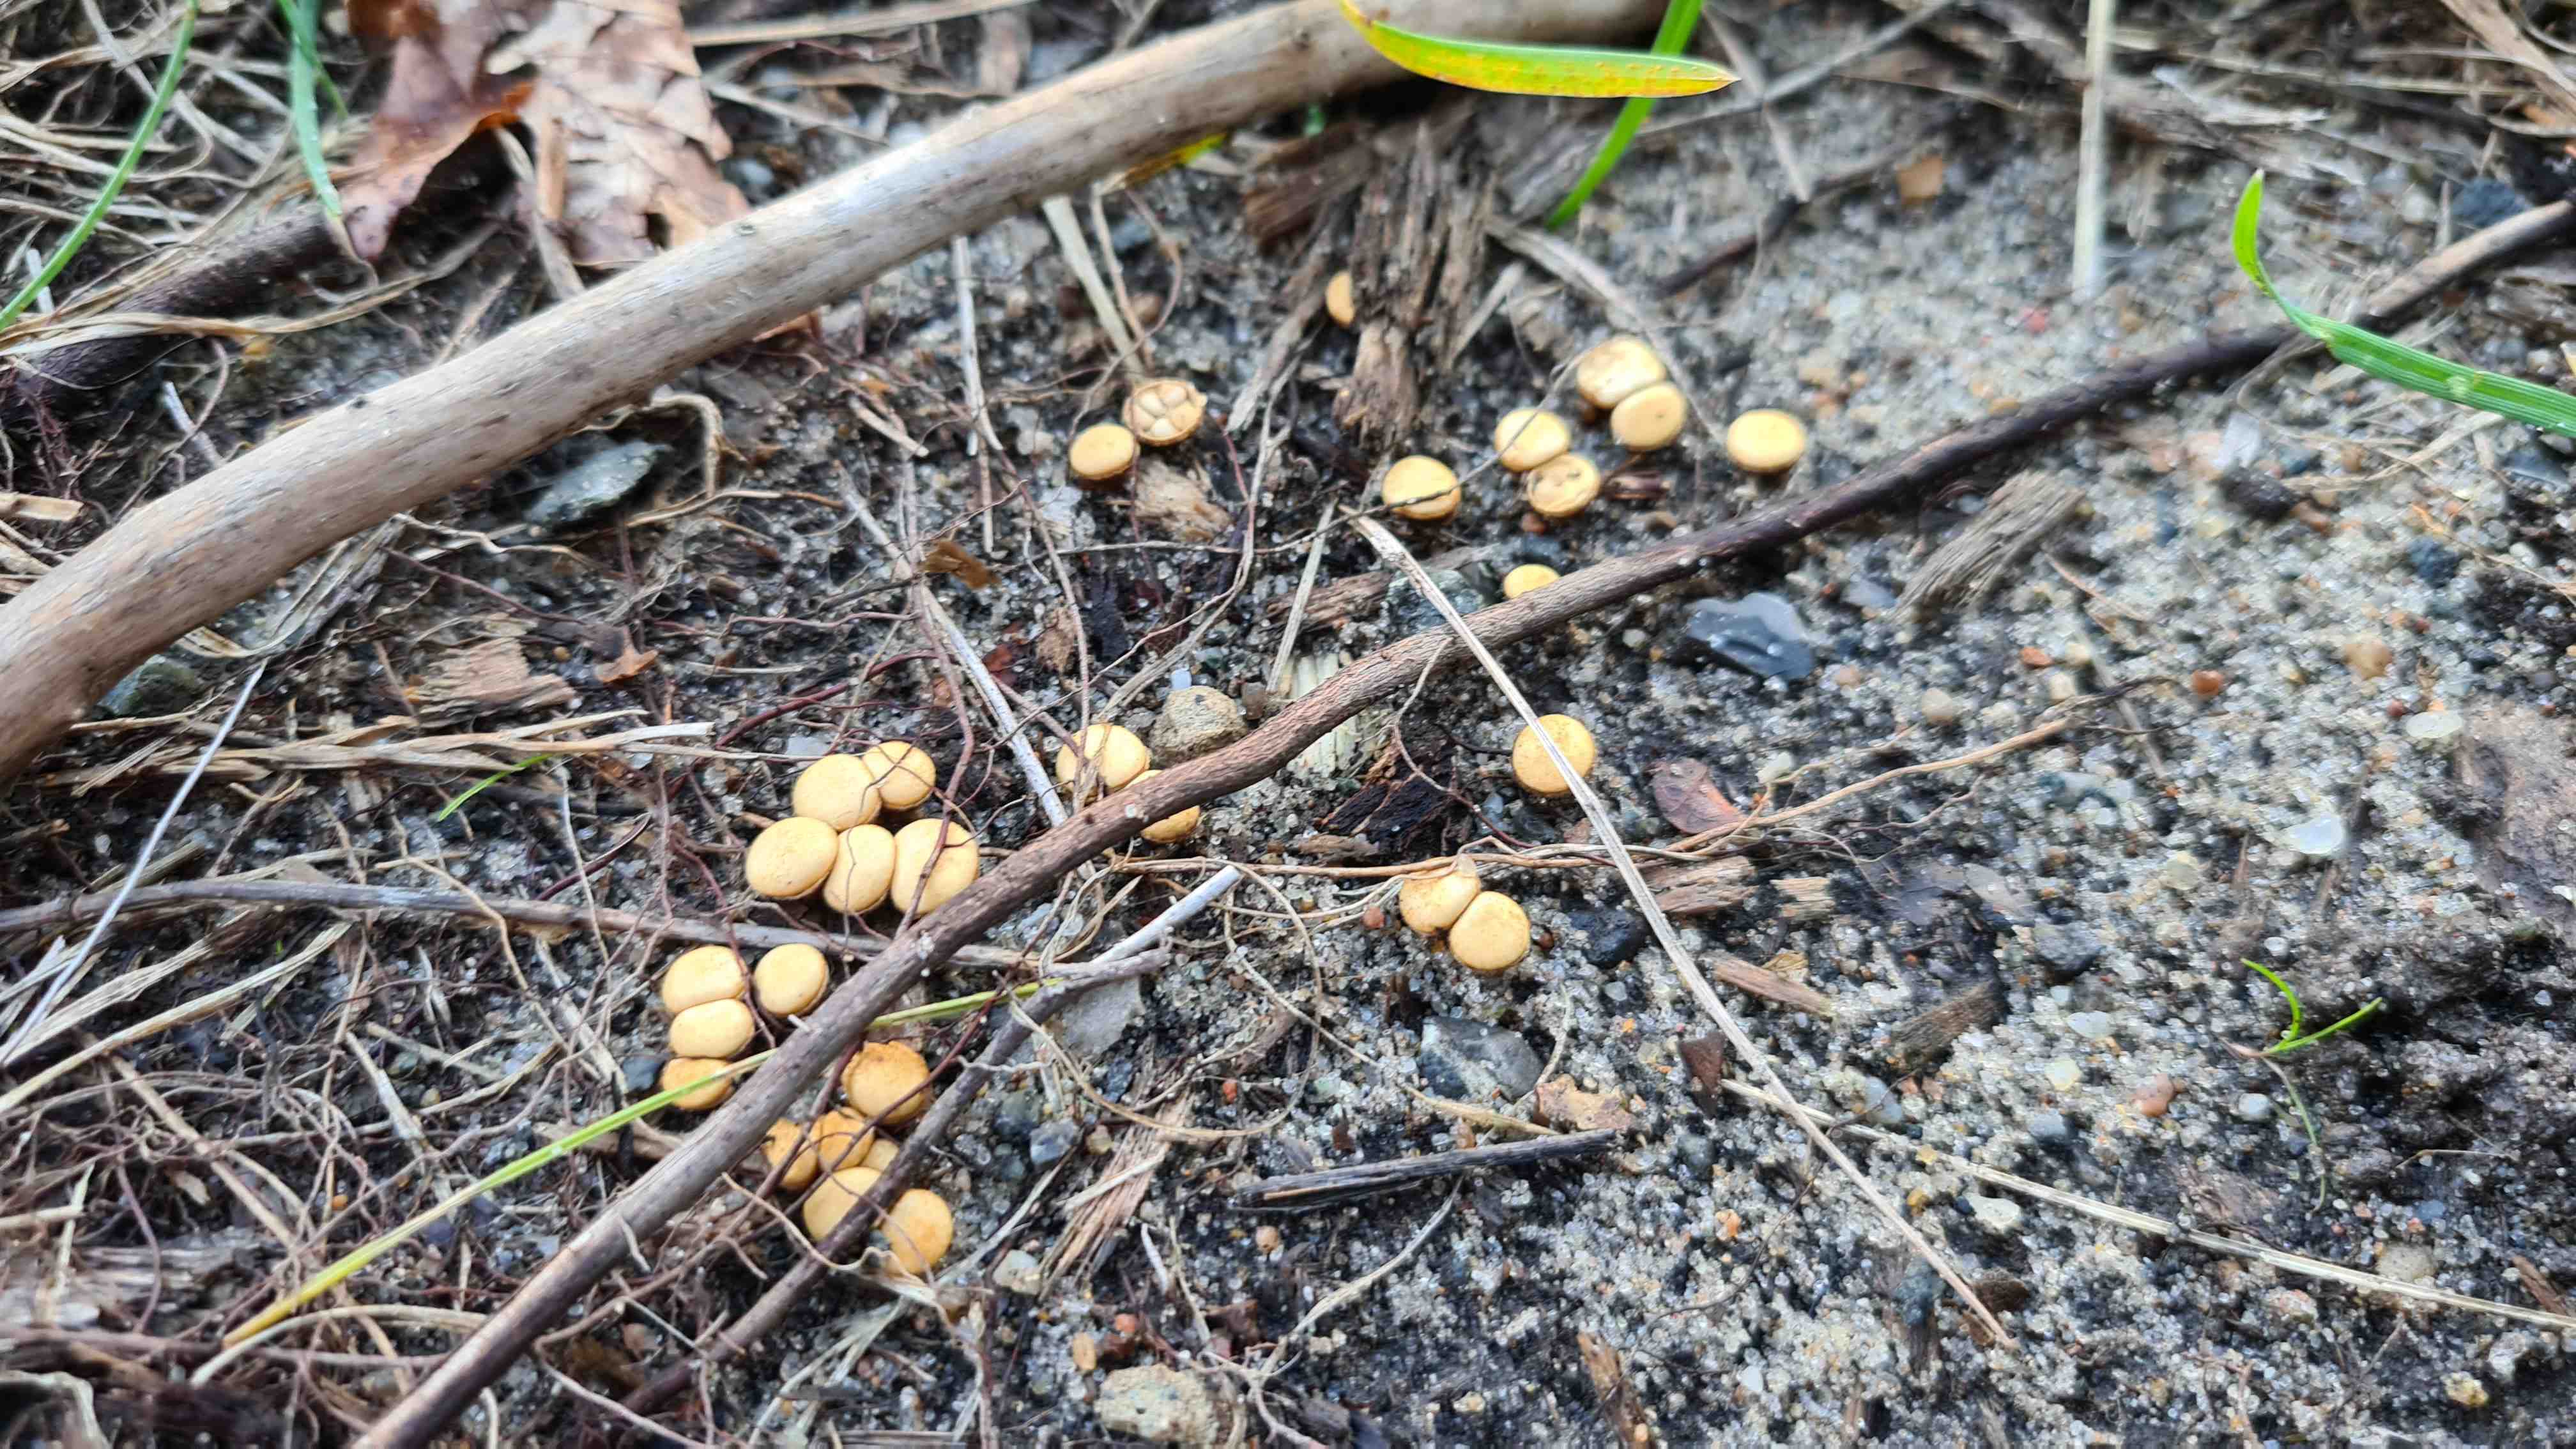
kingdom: Fungi
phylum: Basidiomycota
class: Agaricomycetes
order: Agaricales
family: Nidulariaceae
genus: Crucibulum
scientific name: Crucibulum crucibuliforme
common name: krukkesvamp
